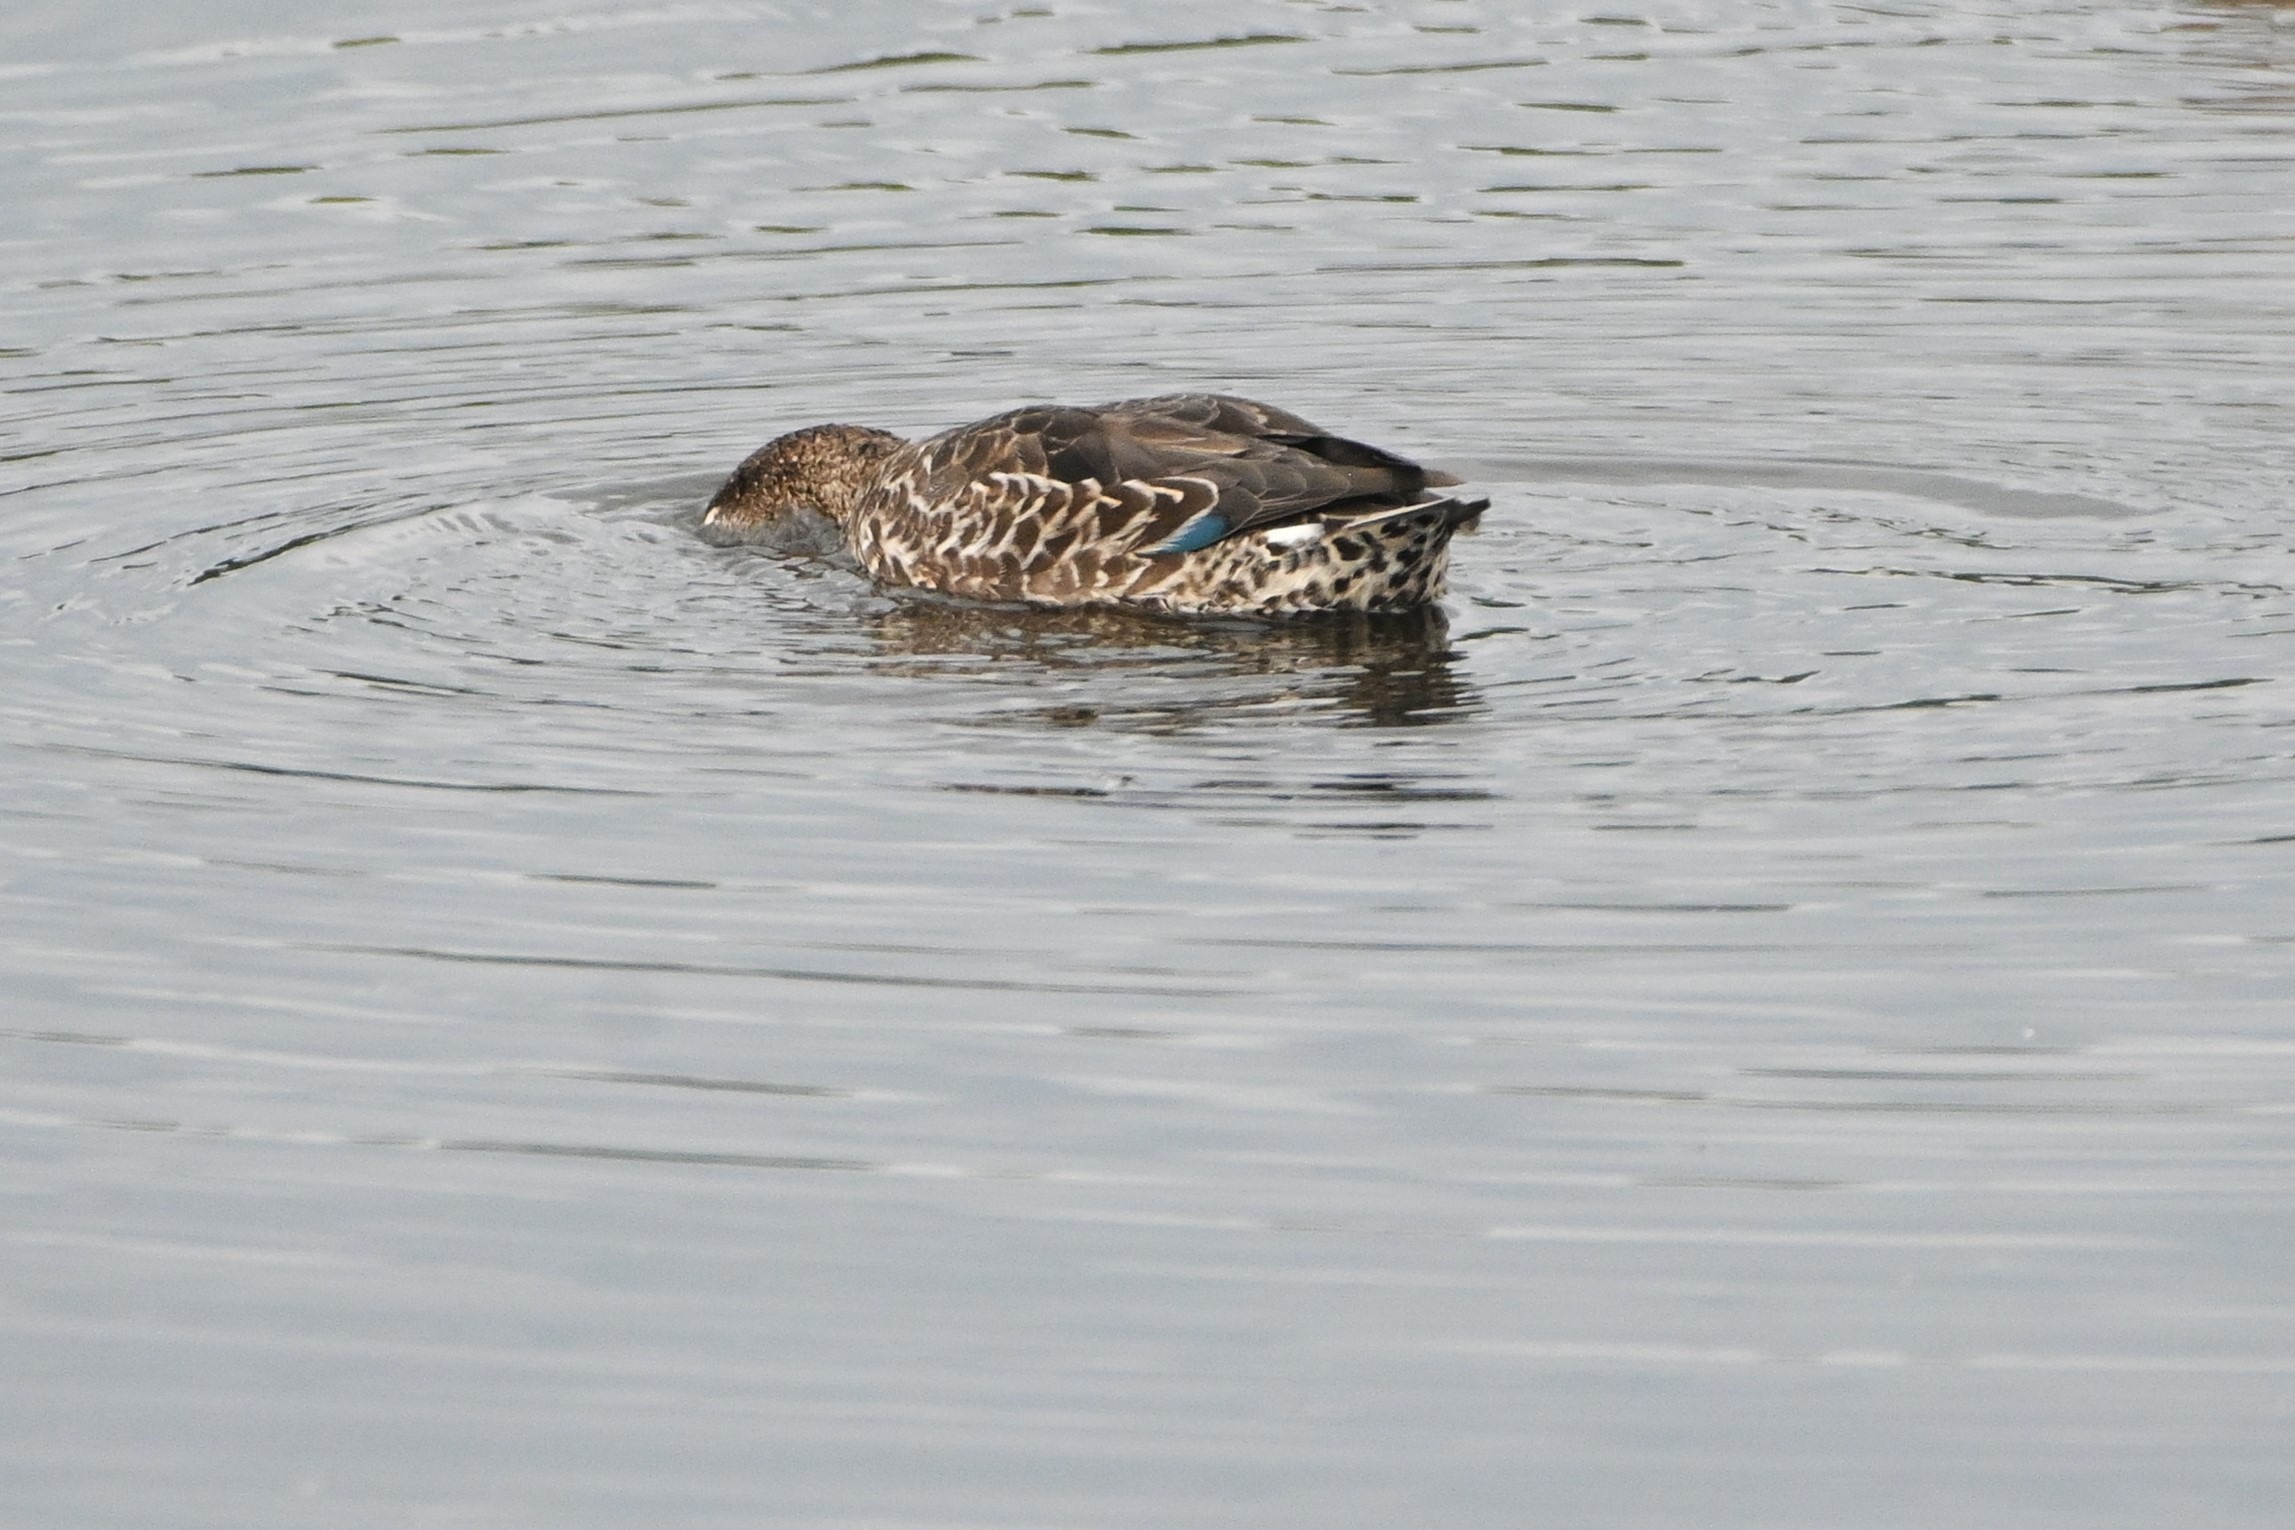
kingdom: Animalia
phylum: Chordata
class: Aves
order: Anseriformes
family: Anatidae
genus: Anas
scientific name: Anas crecca
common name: Krikand
